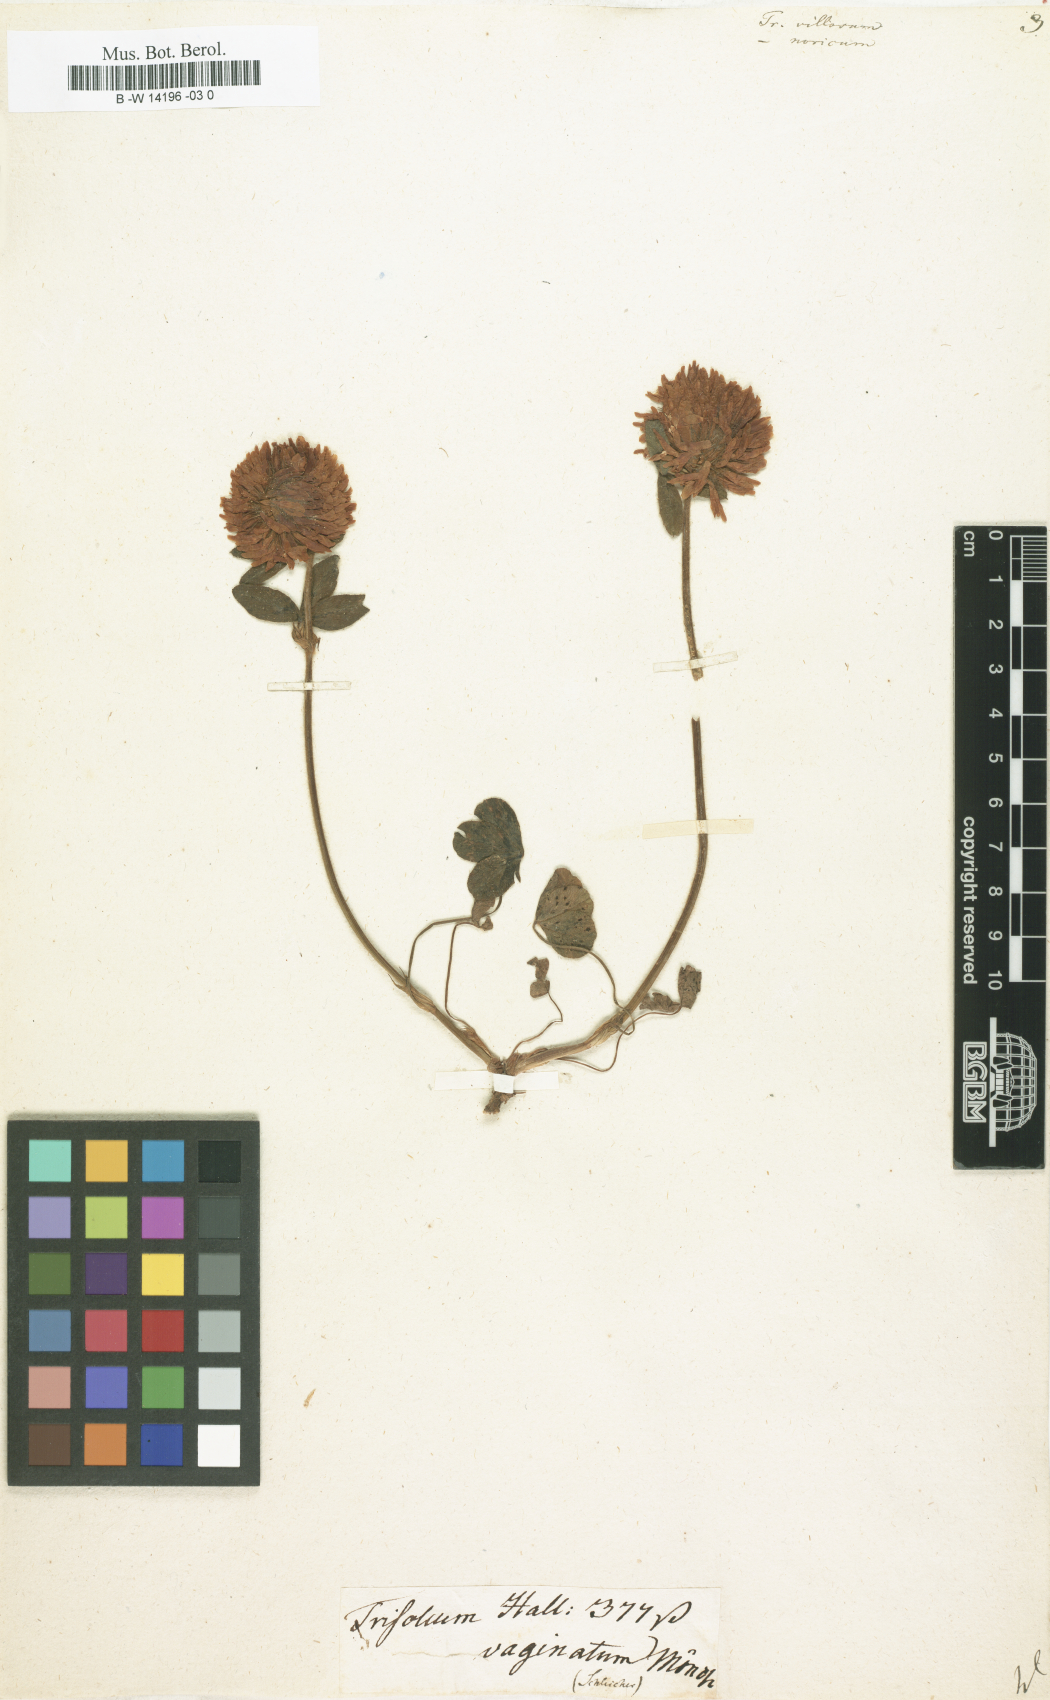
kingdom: Plantae
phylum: Tracheophyta
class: Magnoliopsida
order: Fabales
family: Fabaceae
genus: Trifolium
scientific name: Trifolium
